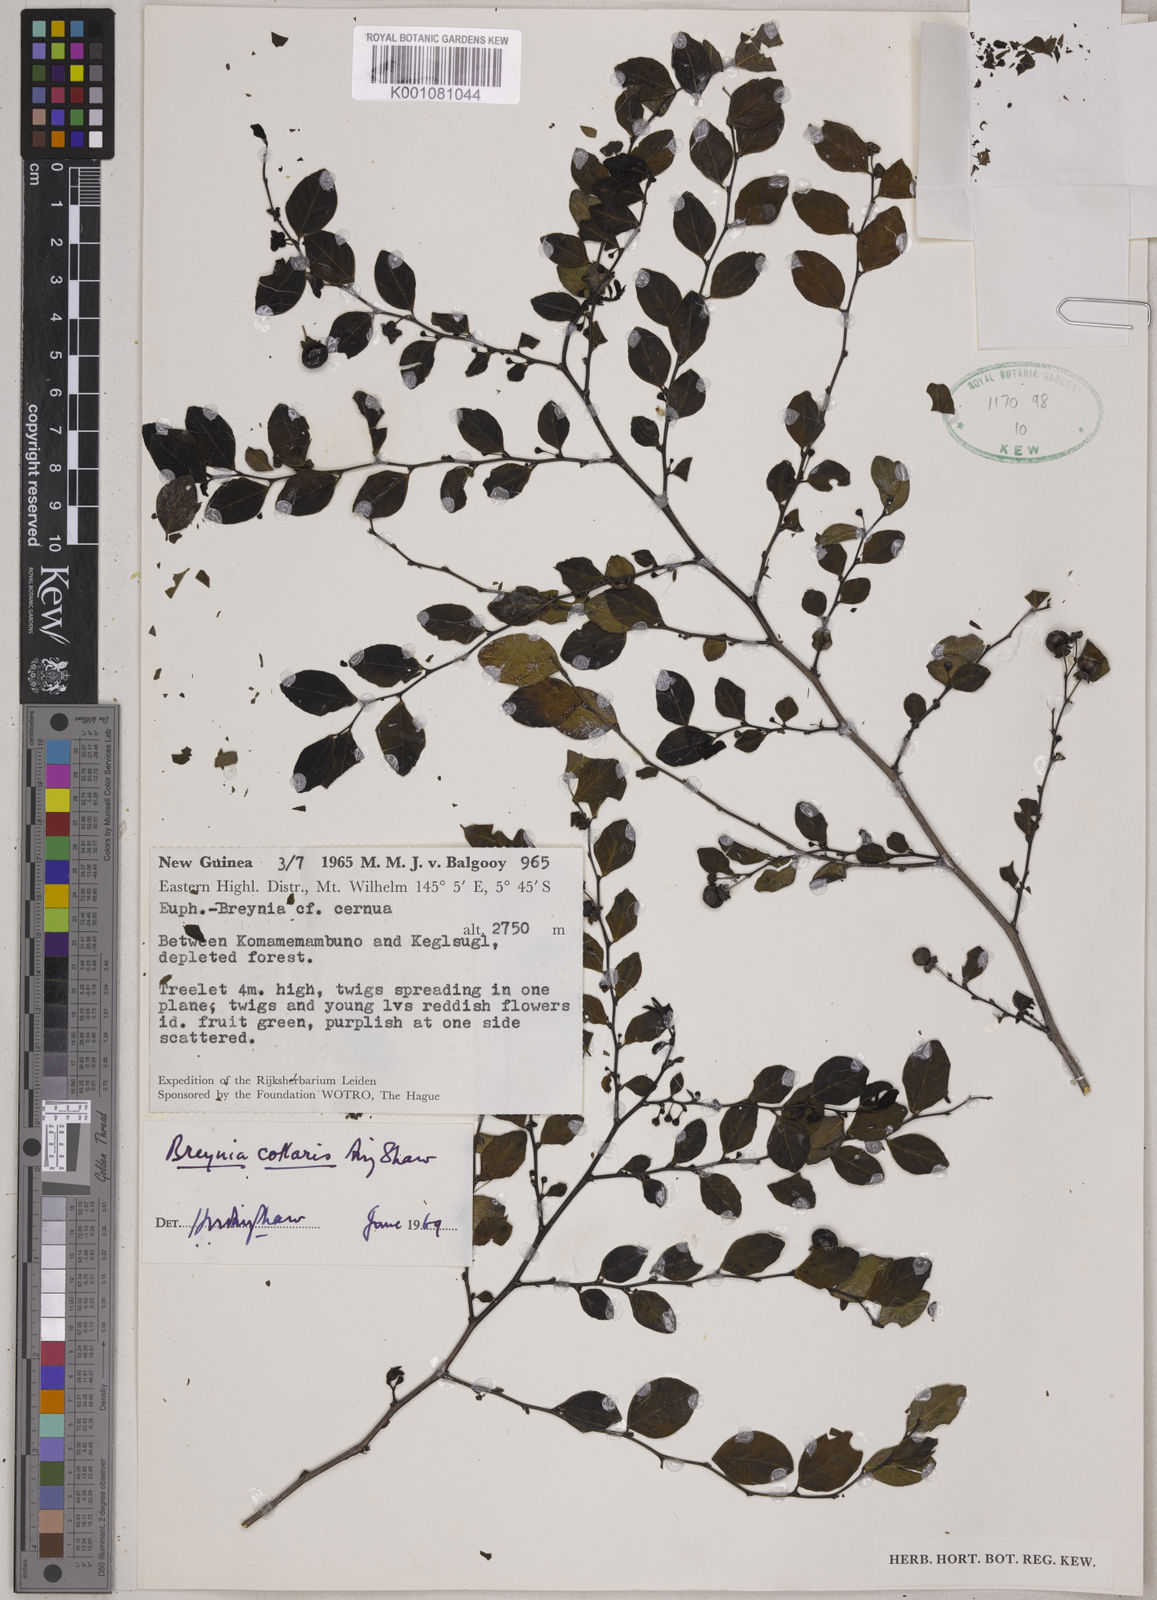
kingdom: Plantae
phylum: Tracheophyta
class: Magnoliopsida
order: Malpighiales
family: Phyllanthaceae
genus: Breynia
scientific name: Breynia collaris
